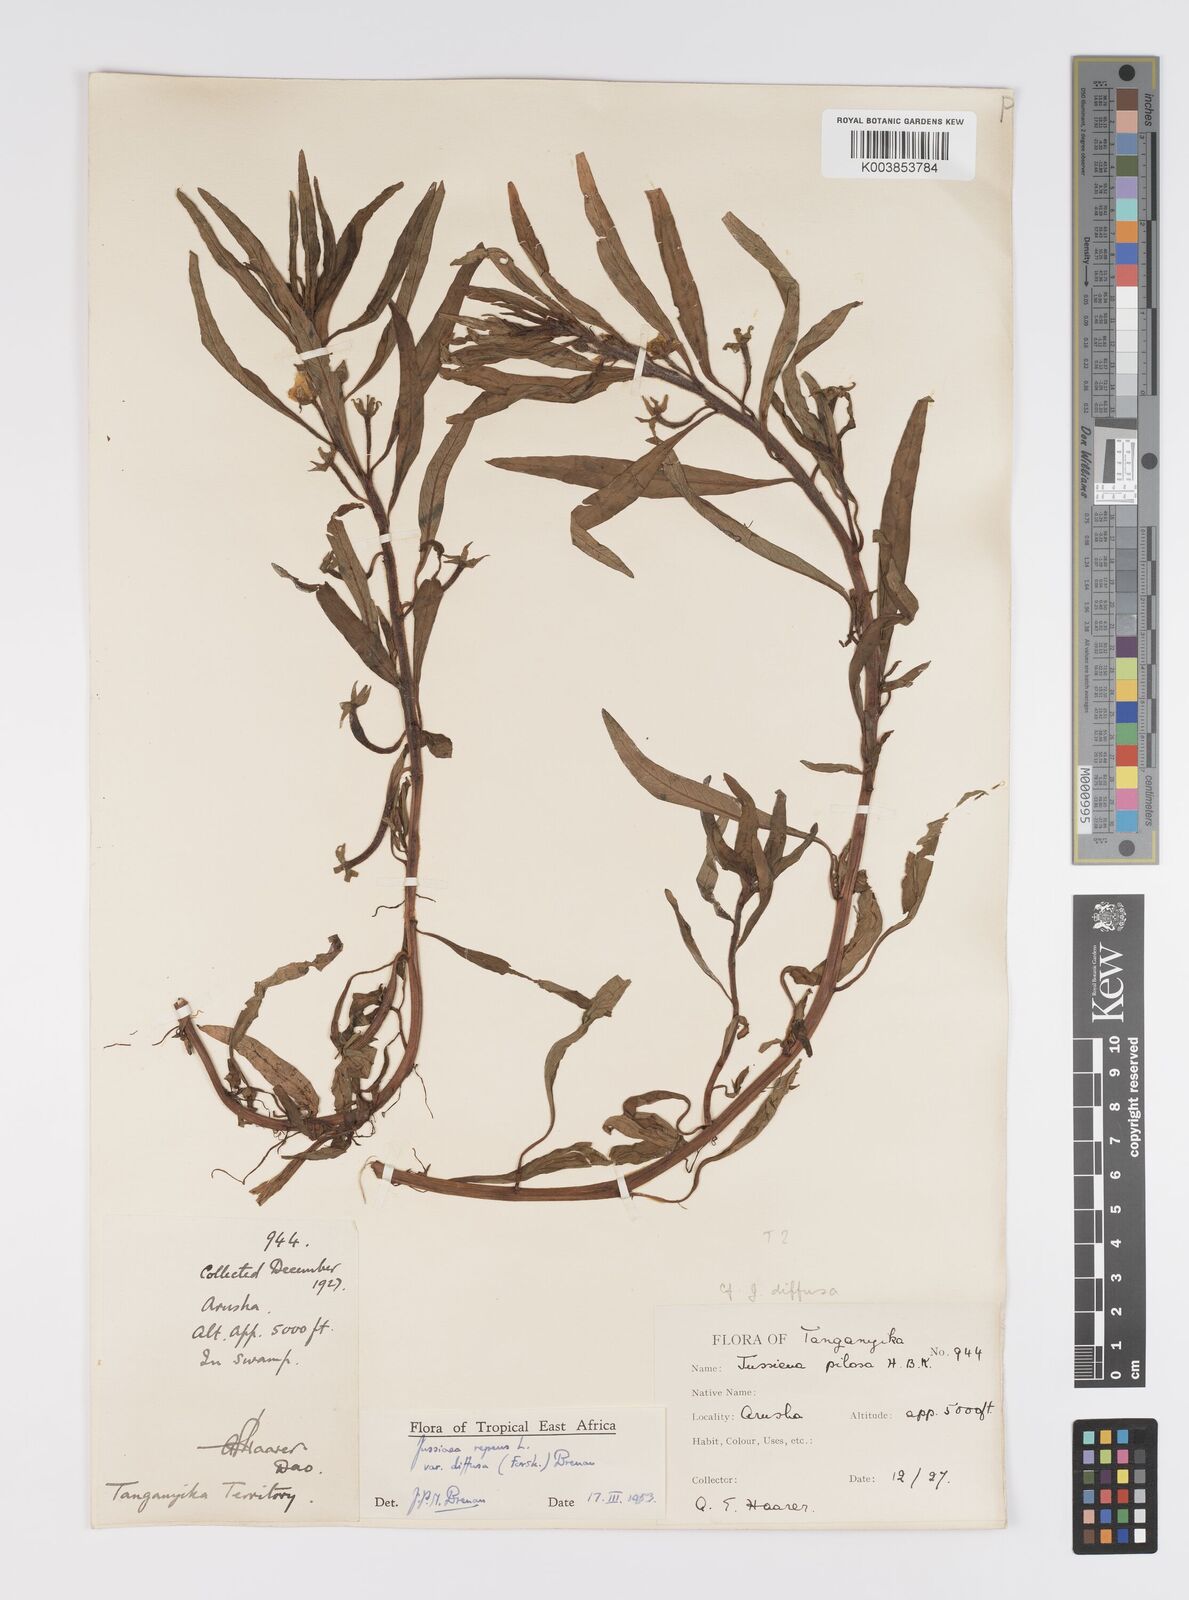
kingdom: Plantae
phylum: Tracheophyta
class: Magnoliopsida
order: Myrtales
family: Onagraceae
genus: Ludwigia
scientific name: Ludwigia repens
